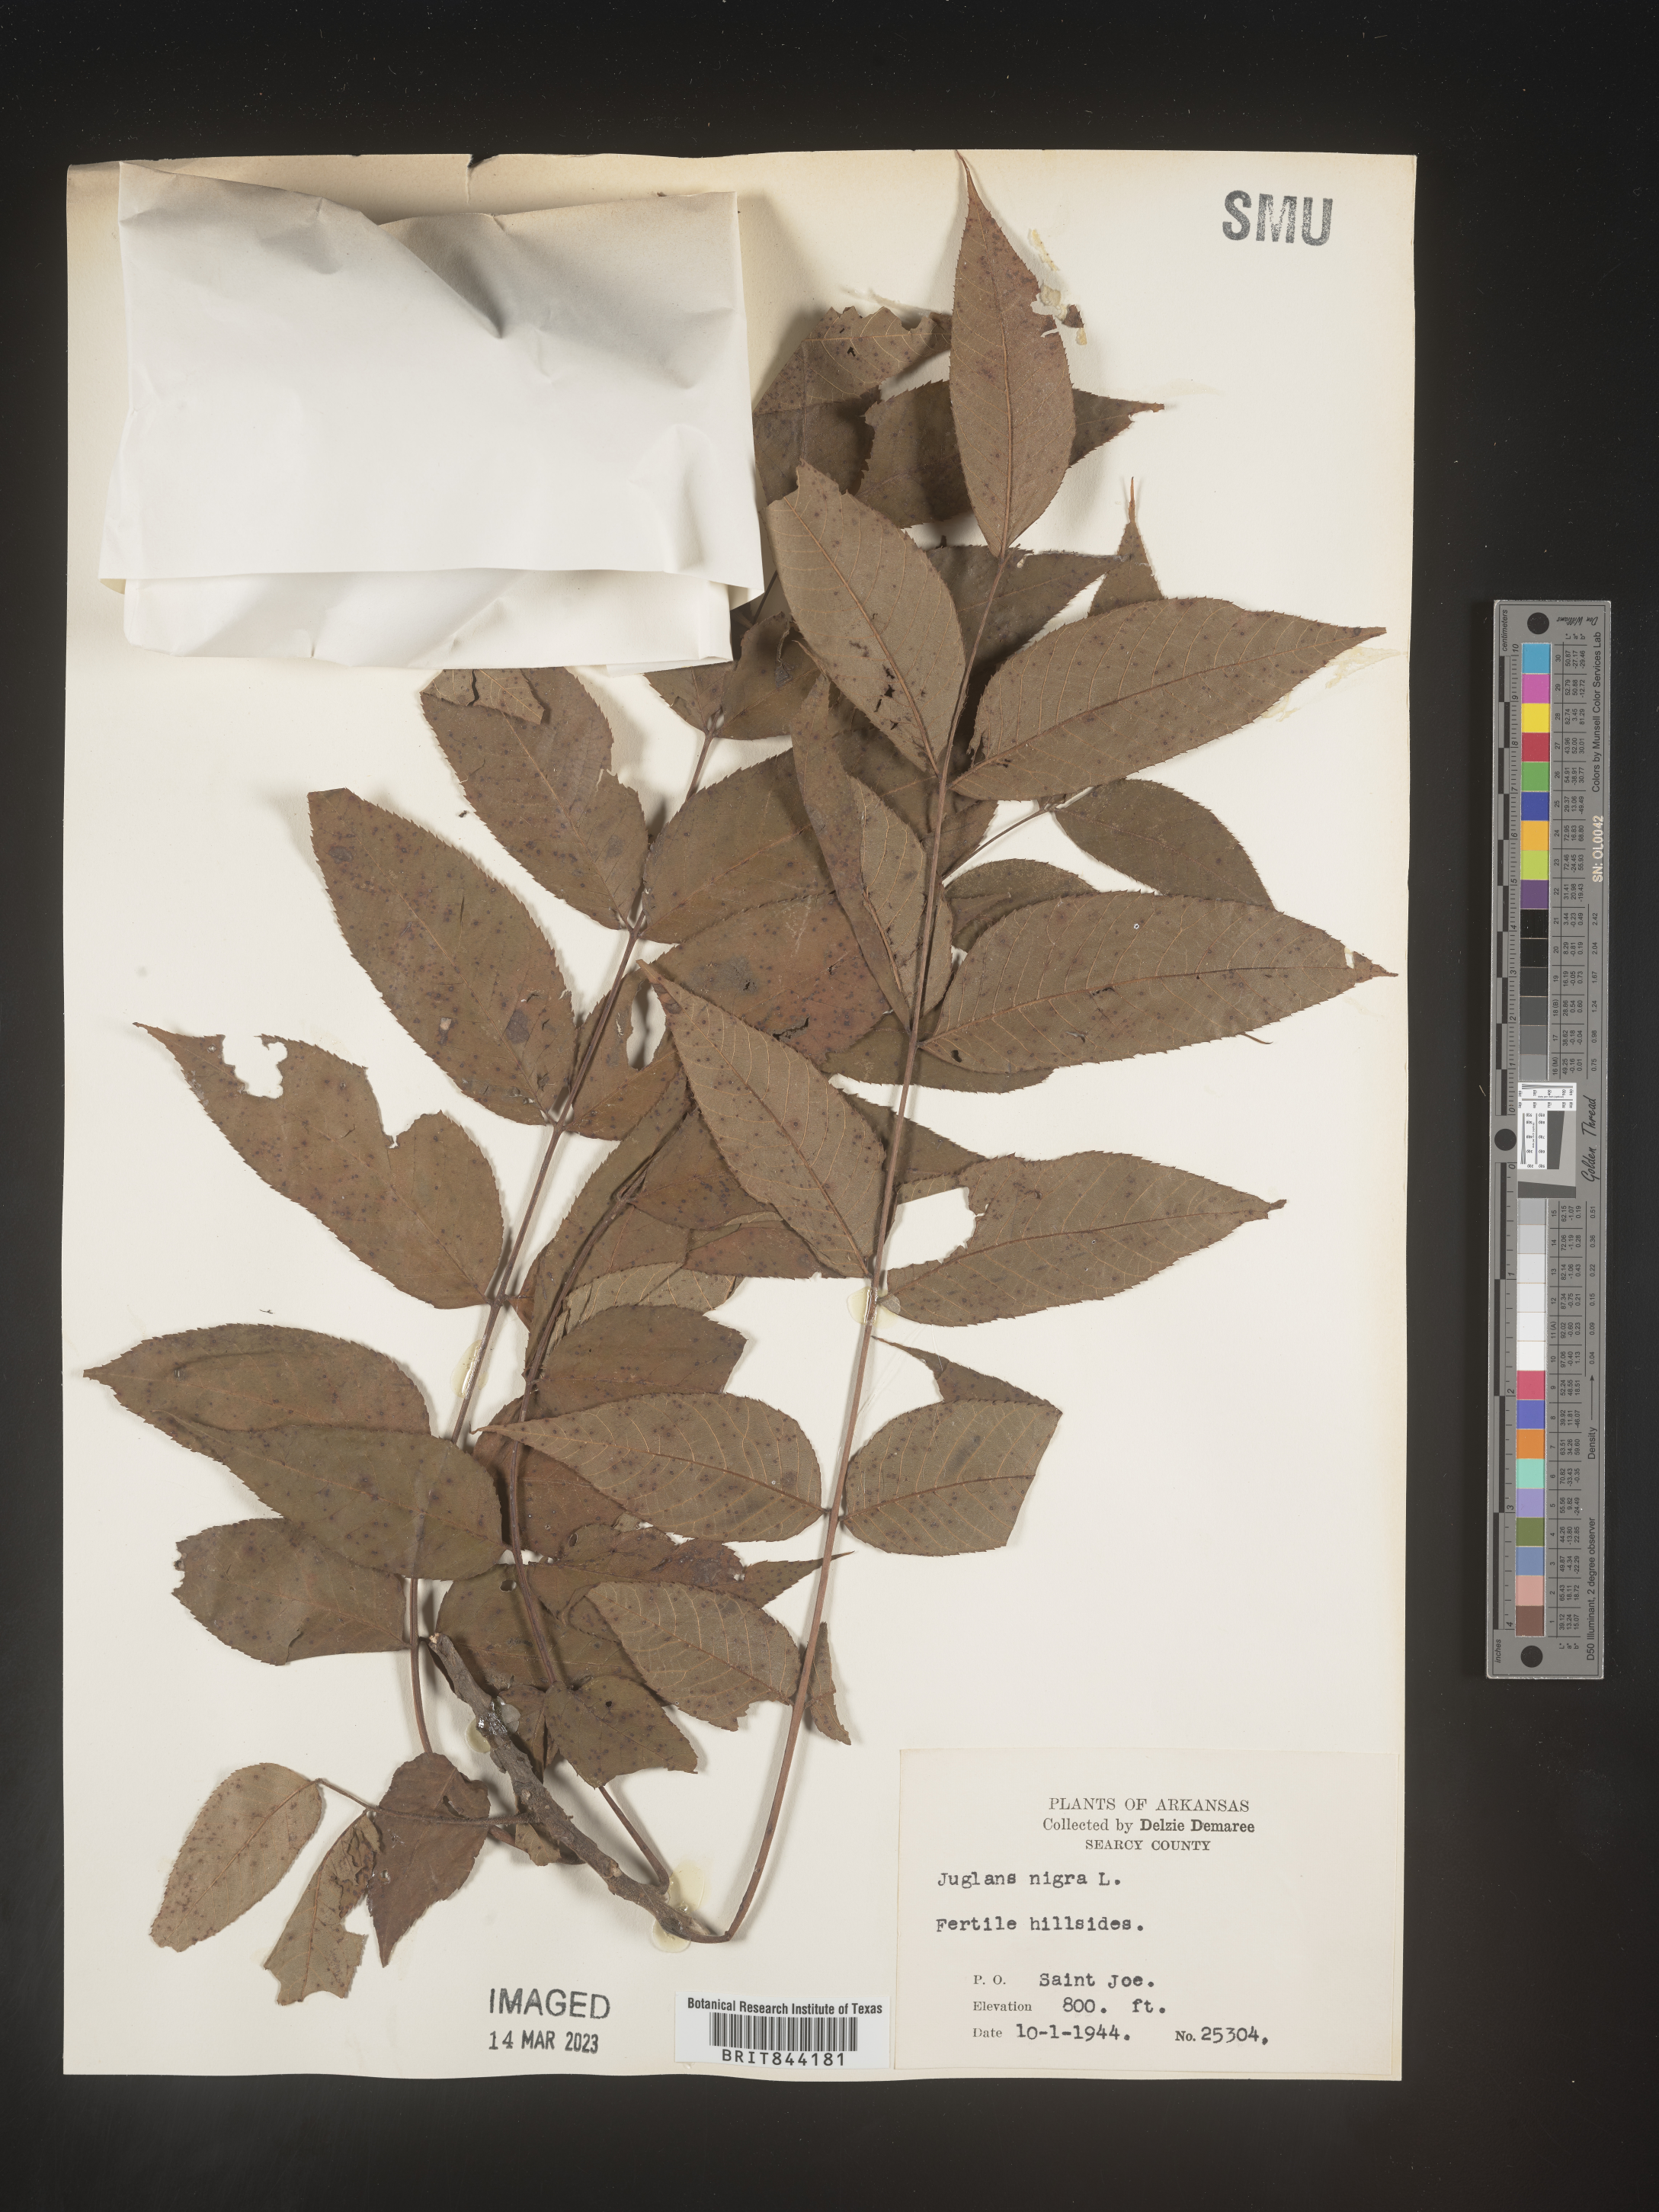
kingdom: Plantae
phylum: Tracheophyta
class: Magnoliopsida
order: Fagales
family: Juglandaceae
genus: Juglans
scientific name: Juglans nigra
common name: Black walnut
